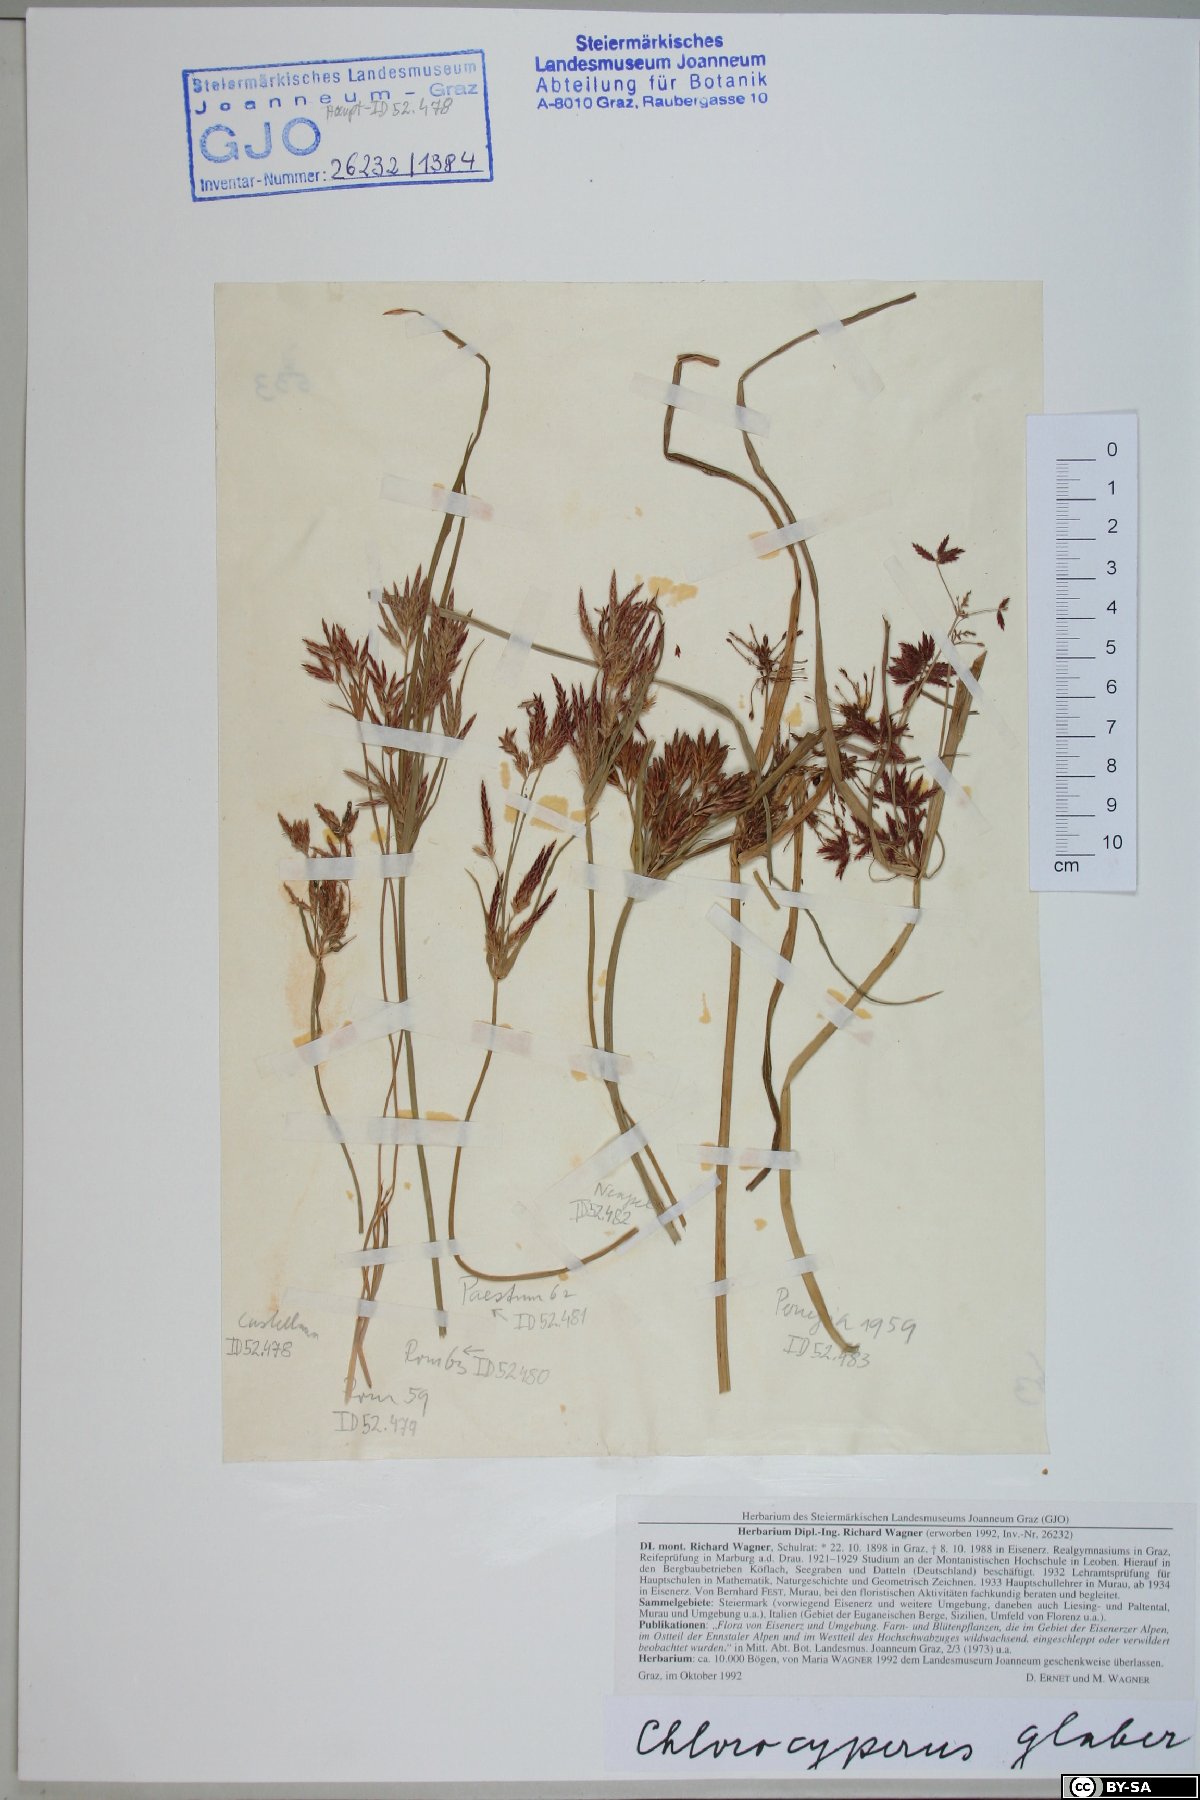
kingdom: Plantae
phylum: Tracheophyta
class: Liliopsida
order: Poales
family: Cyperaceae
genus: Cyperus
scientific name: Cyperus glaber
